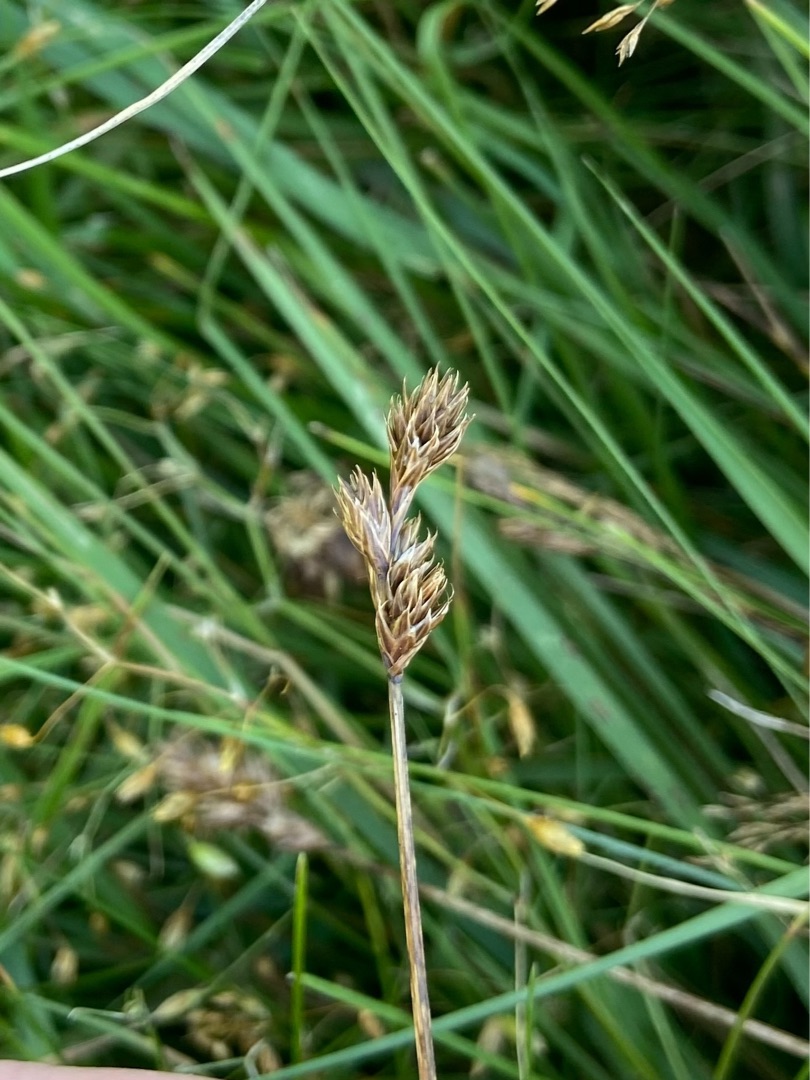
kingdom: Plantae
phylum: Tracheophyta
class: Liliopsida
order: Poales
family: Cyperaceae
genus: Carex
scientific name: Carex leporina
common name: Hare-star
